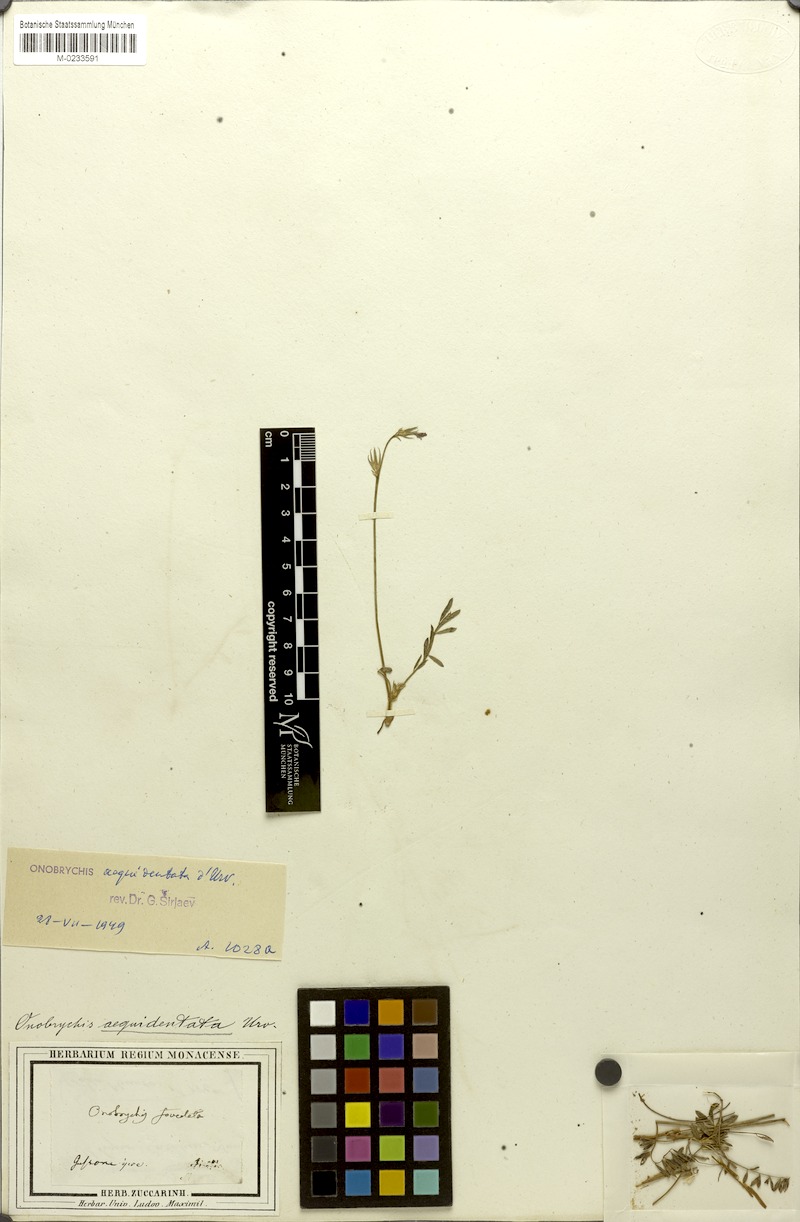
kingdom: Plantae
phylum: Tracheophyta
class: Magnoliopsida
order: Fabales
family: Fabaceae
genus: Onobrychis
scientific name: Onobrychis aequidentata
